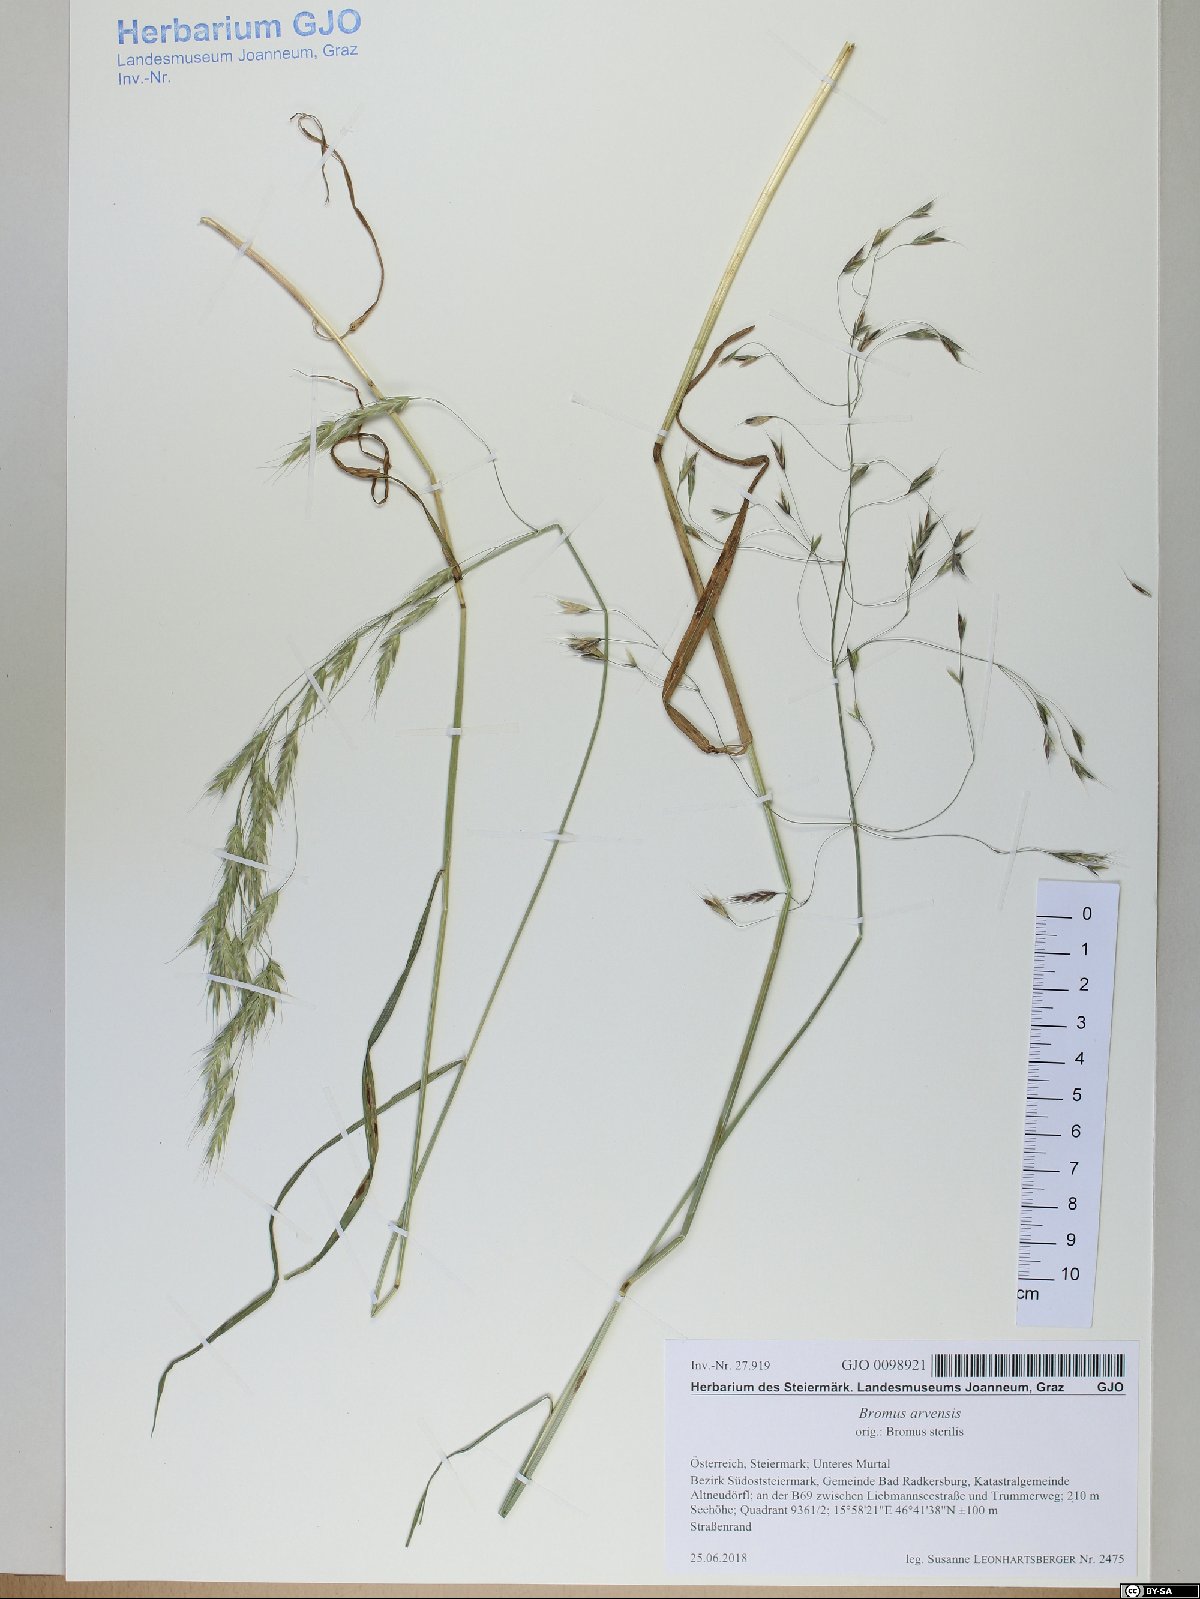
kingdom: Plantae
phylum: Tracheophyta
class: Liliopsida
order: Poales
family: Poaceae
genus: Bromus
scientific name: Bromus arvensis
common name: Field brome
